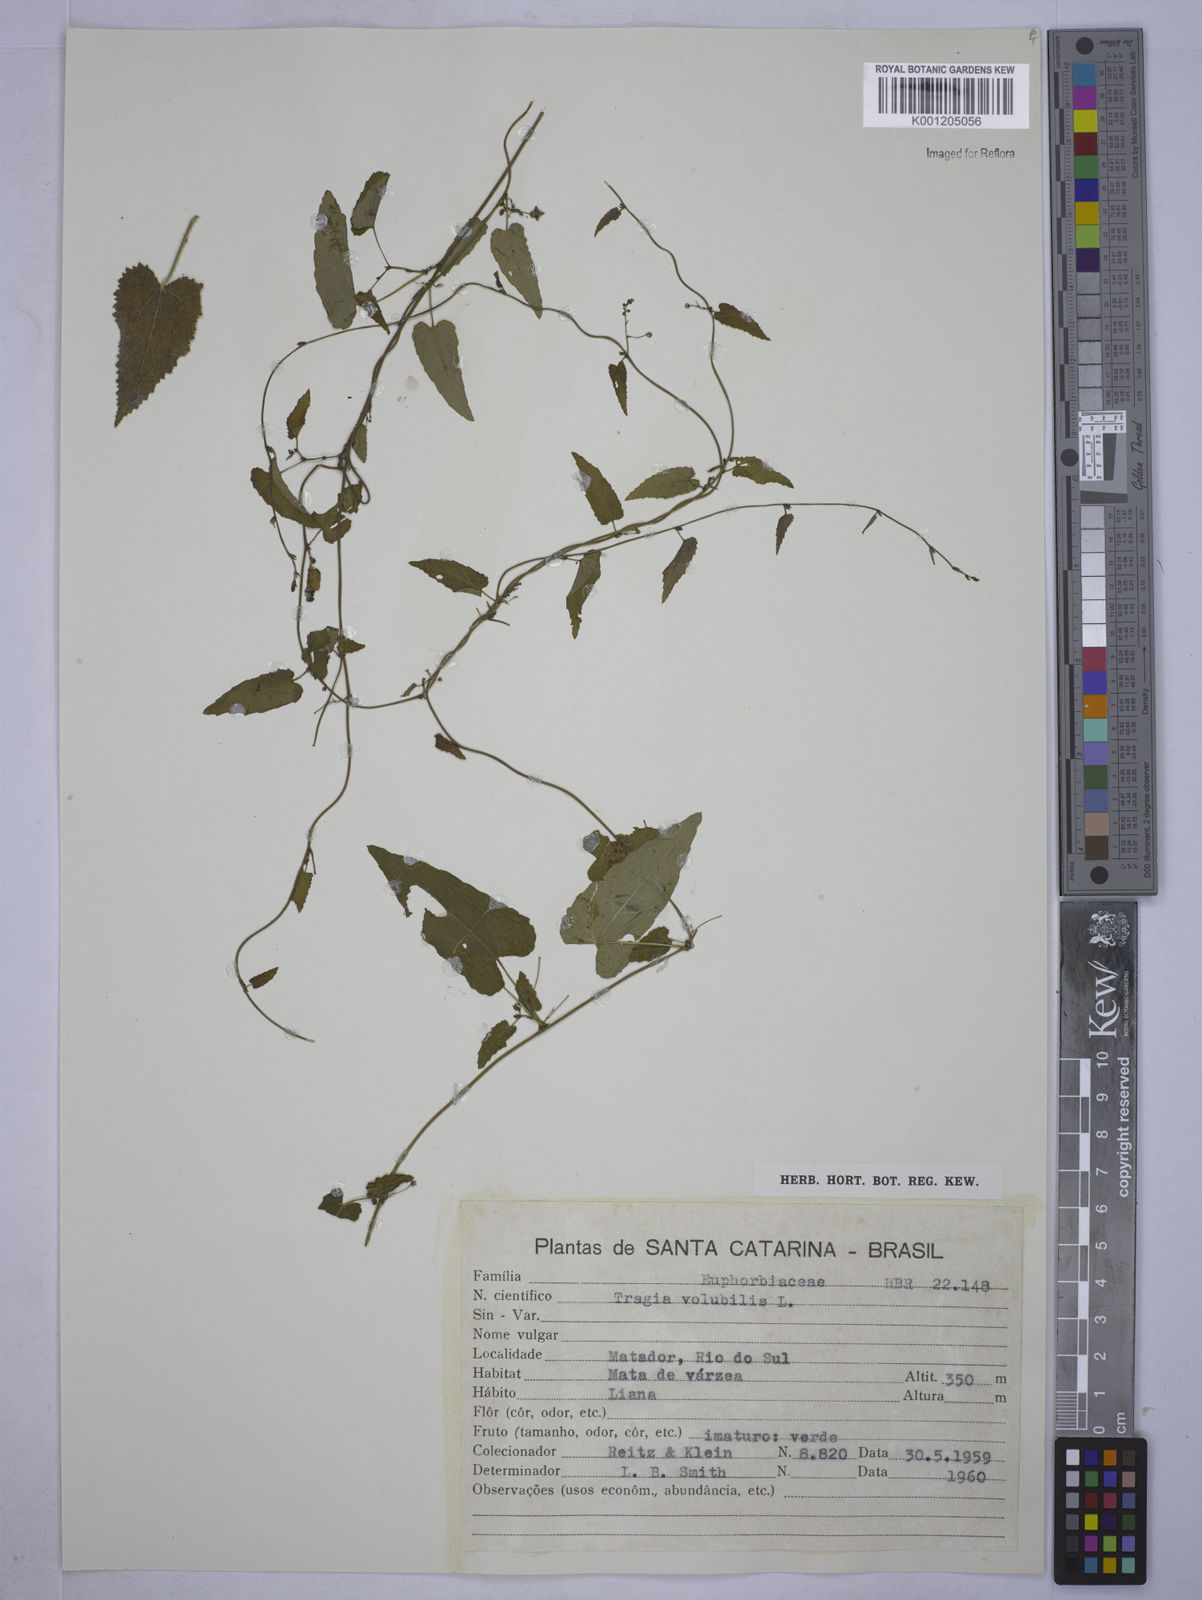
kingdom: Plantae
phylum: Tracheophyta
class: Magnoliopsida
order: Malpighiales
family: Euphorbiaceae
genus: Tragia
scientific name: Tragia volubilis
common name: Twining cow-itch
